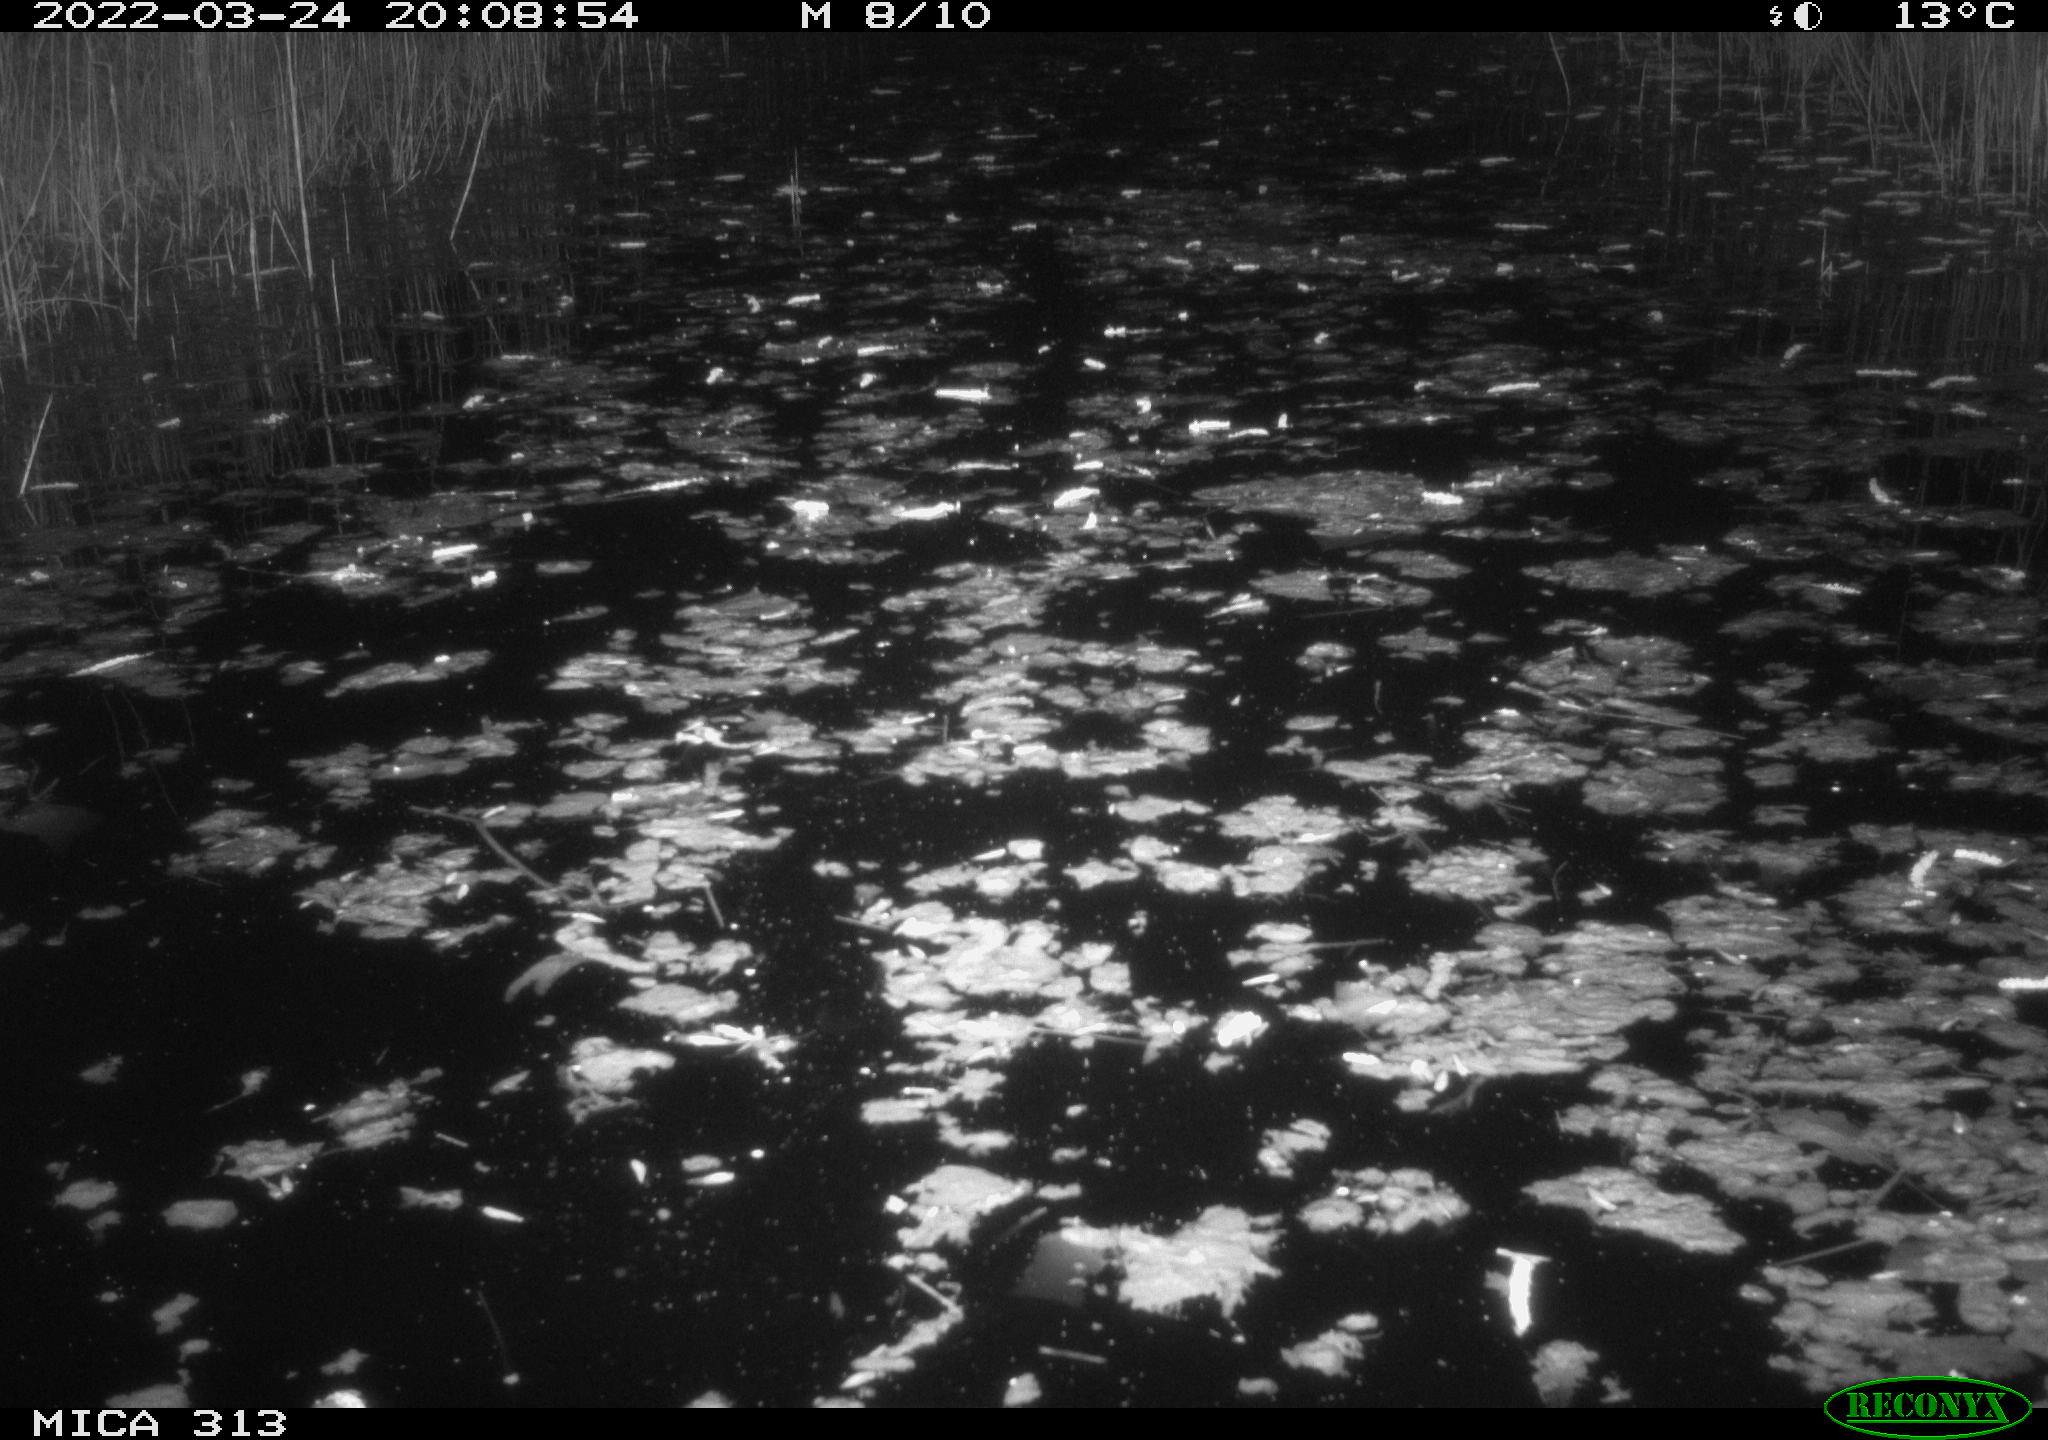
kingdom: Animalia
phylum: Chordata
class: Aves
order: Anseriformes
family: Anatidae
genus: Anas
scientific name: Anas platyrhynchos
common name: Mallard
